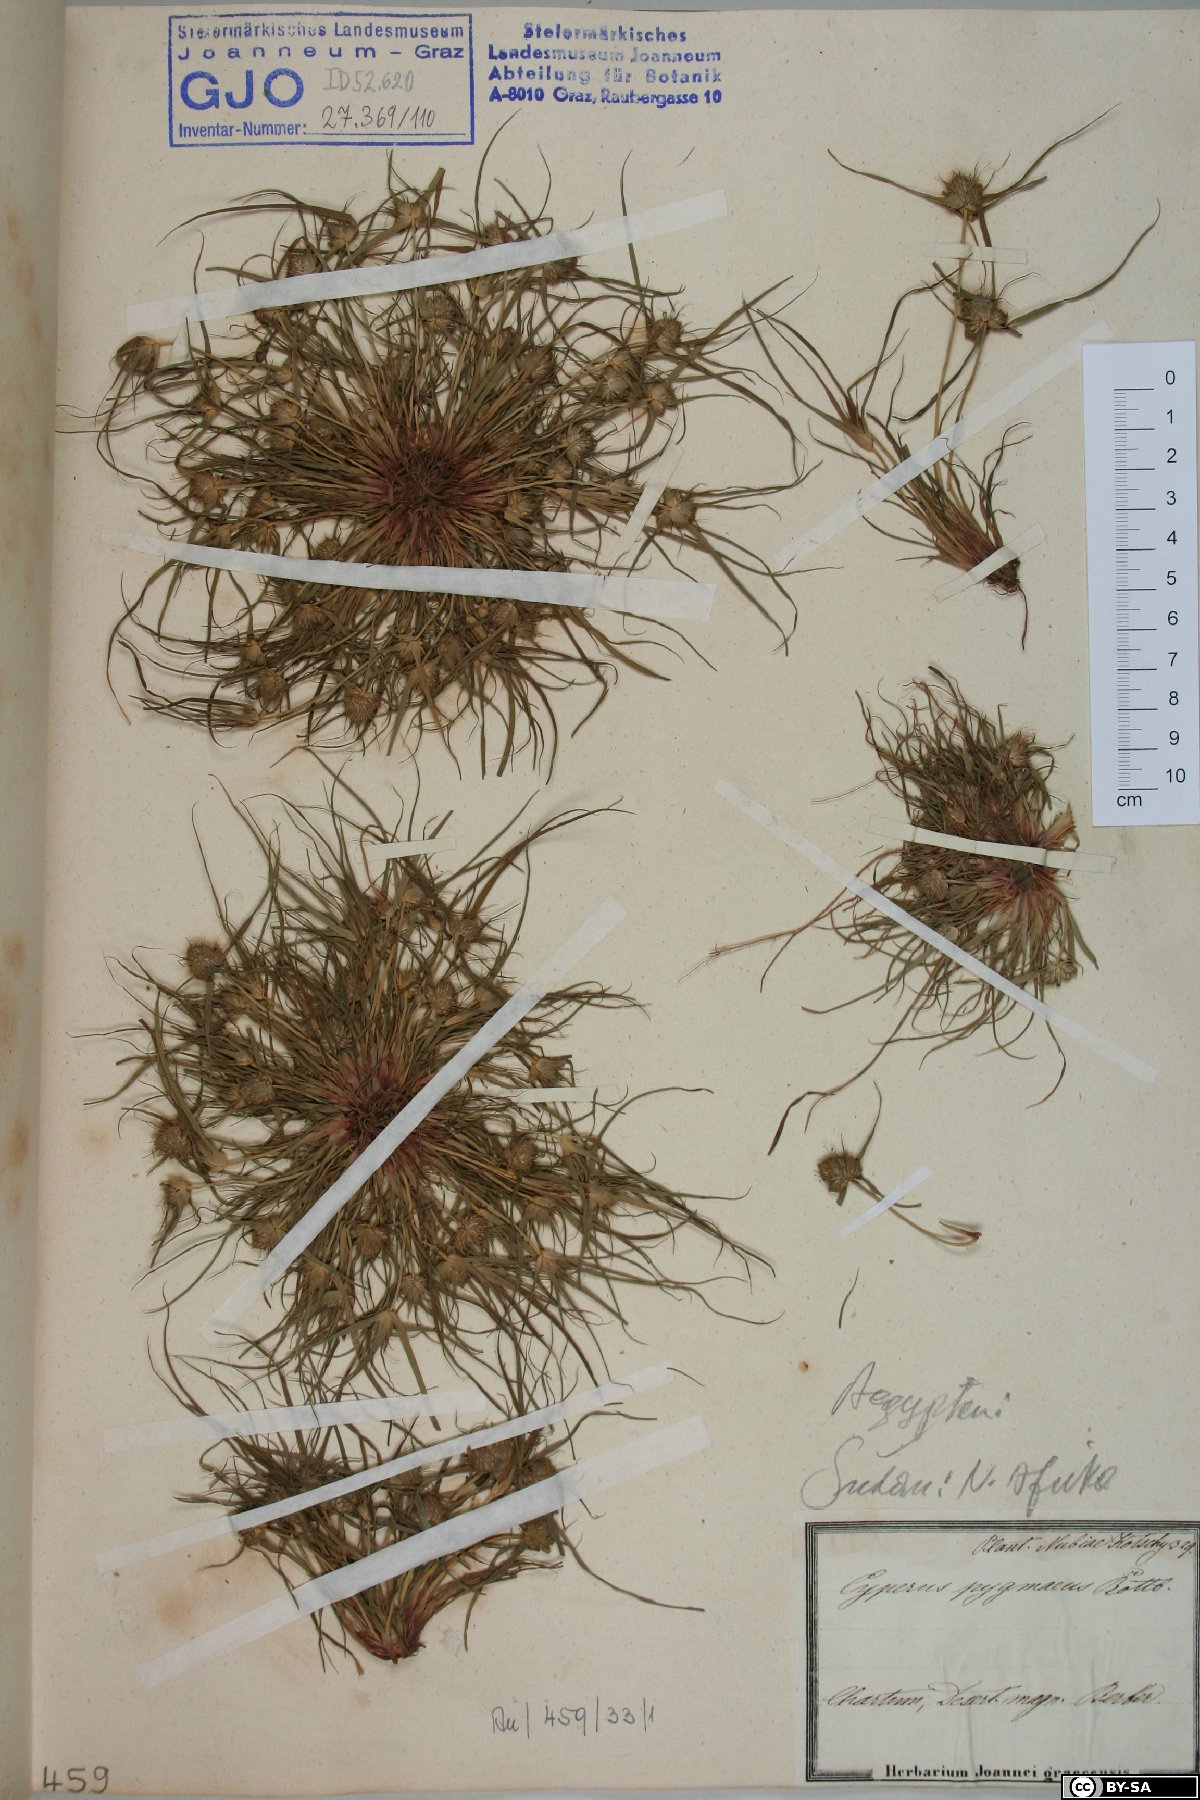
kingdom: Plantae
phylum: Tracheophyta
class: Liliopsida
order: Poales
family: Cyperaceae
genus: Cyperus
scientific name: Cyperus michelianus
